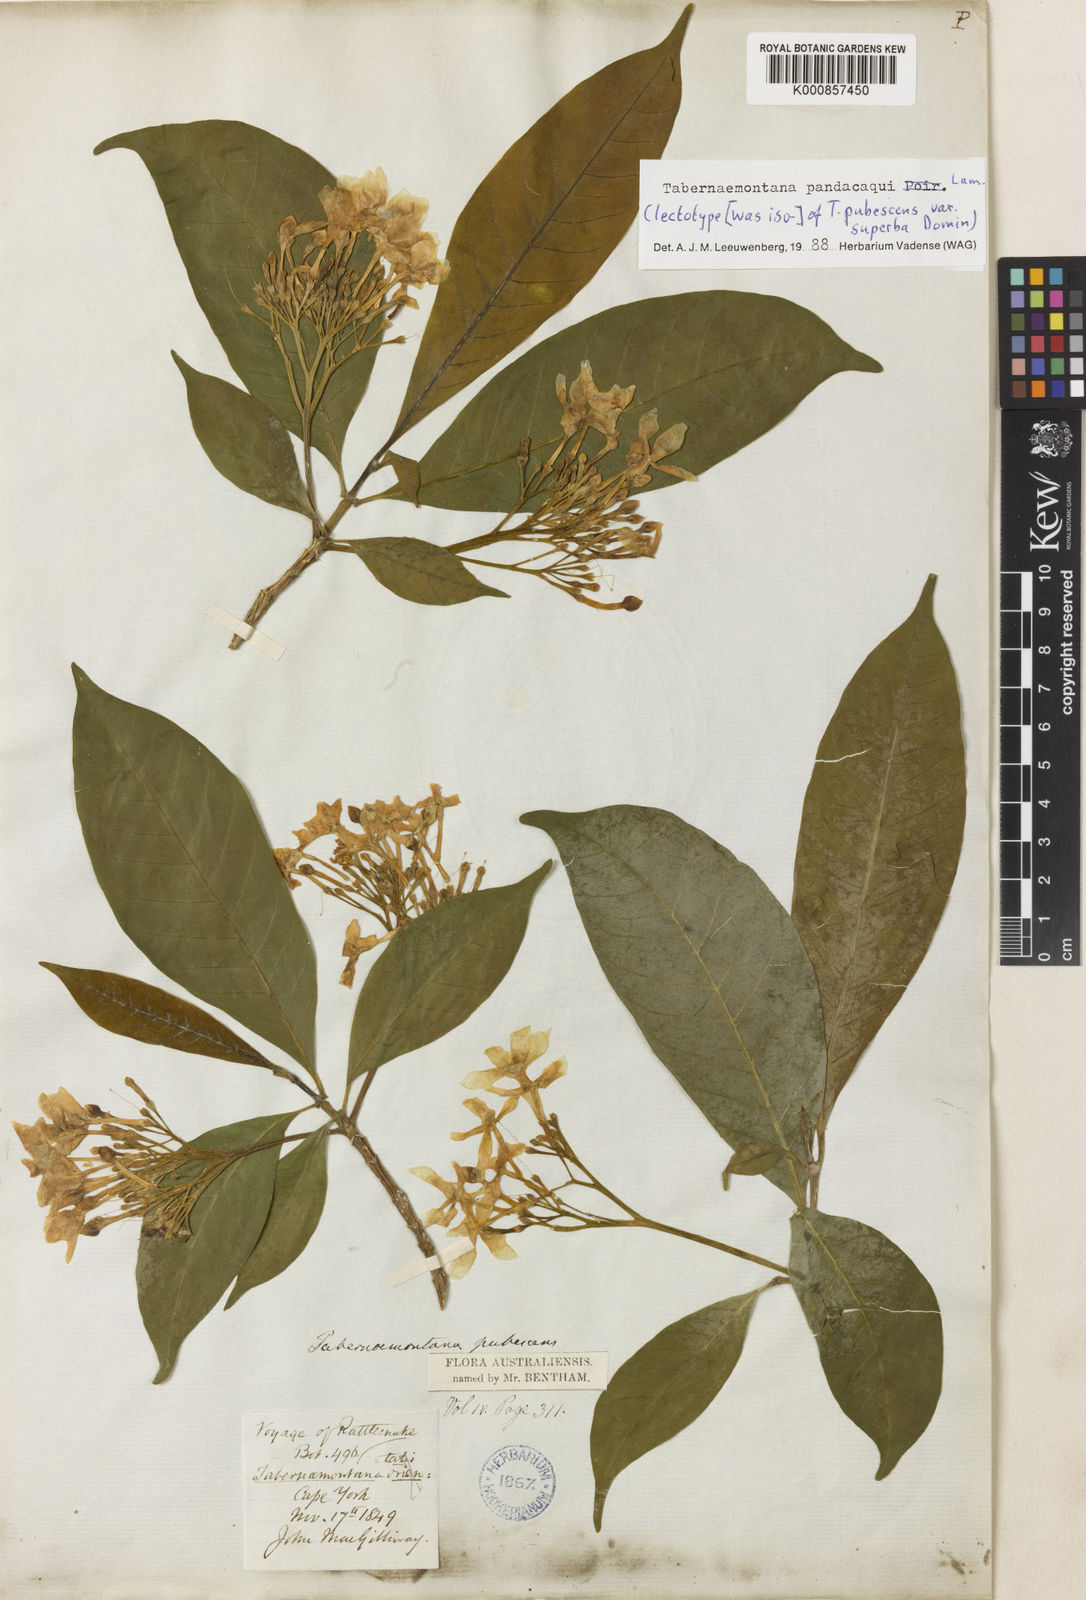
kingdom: Plantae
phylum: Tracheophyta
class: Magnoliopsida
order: Gentianales
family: Apocynaceae
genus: Tabernaemontana
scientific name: Tabernaemontana
